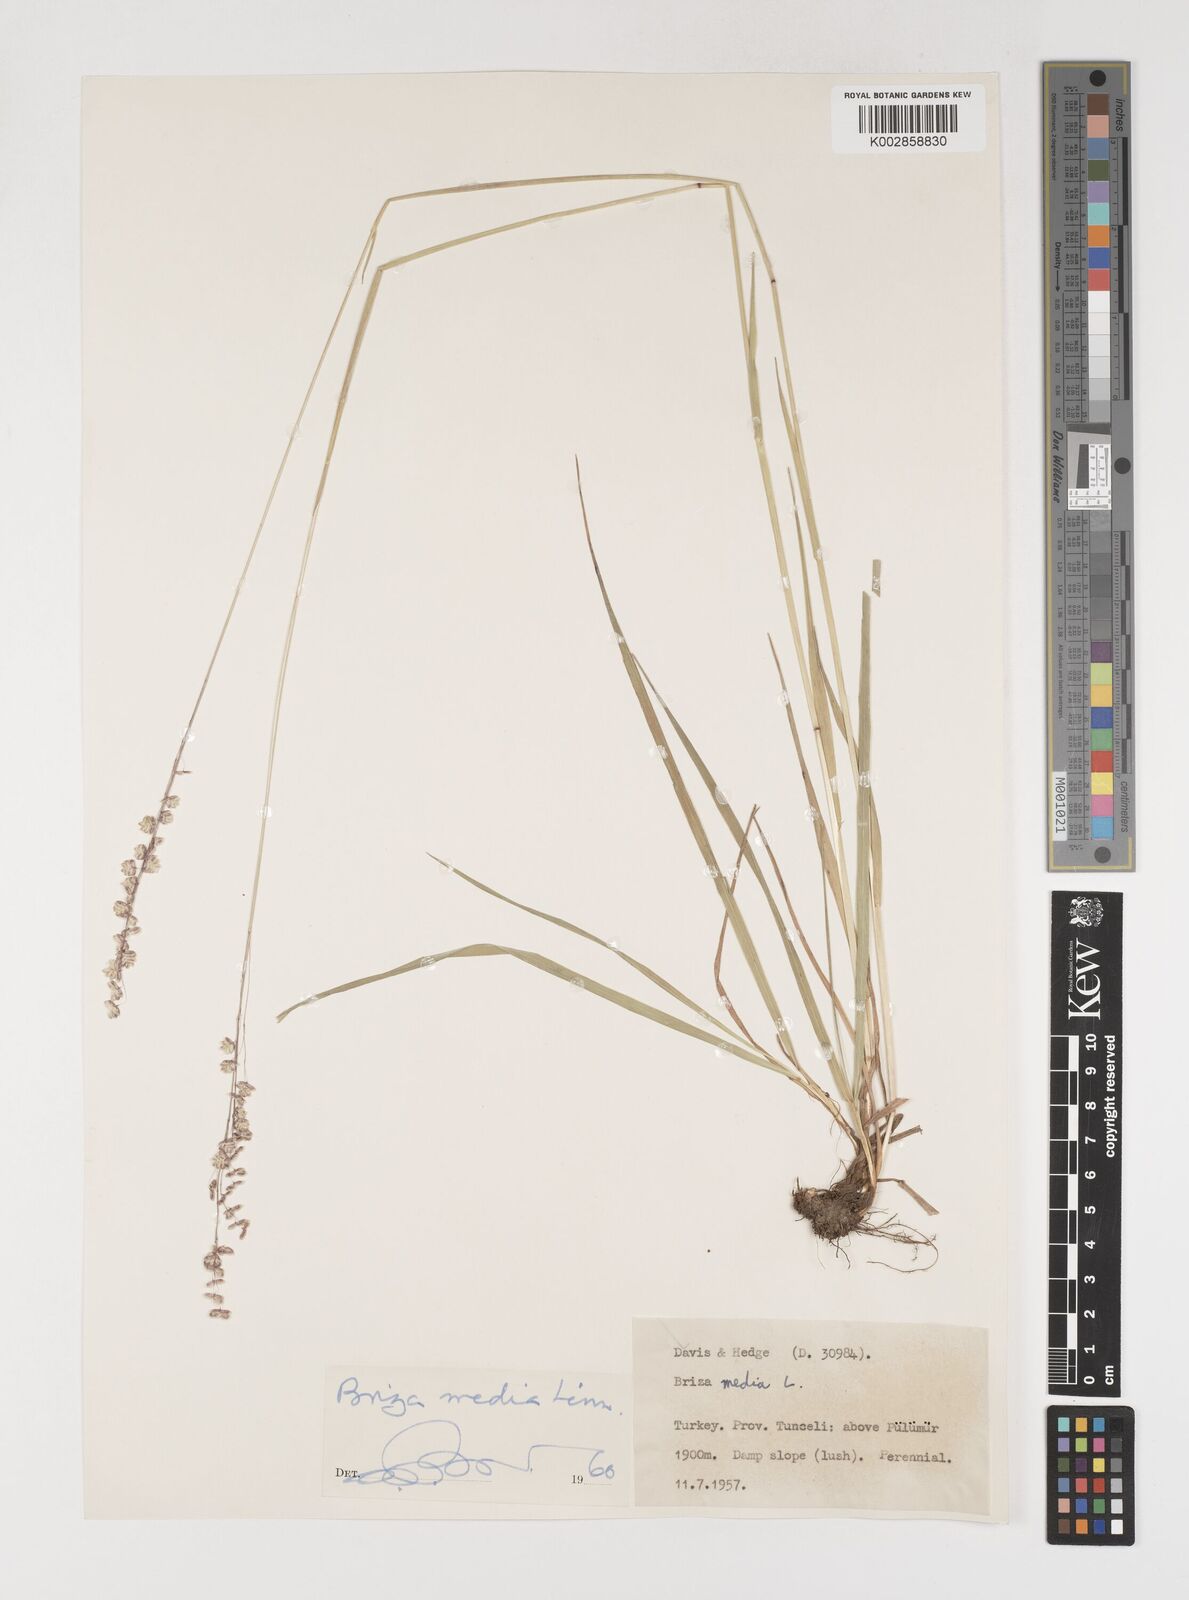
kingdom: Plantae
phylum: Tracheophyta
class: Liliopsida
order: Poales
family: Poaceae
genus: Briza
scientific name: Briza media
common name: Quaking grass
